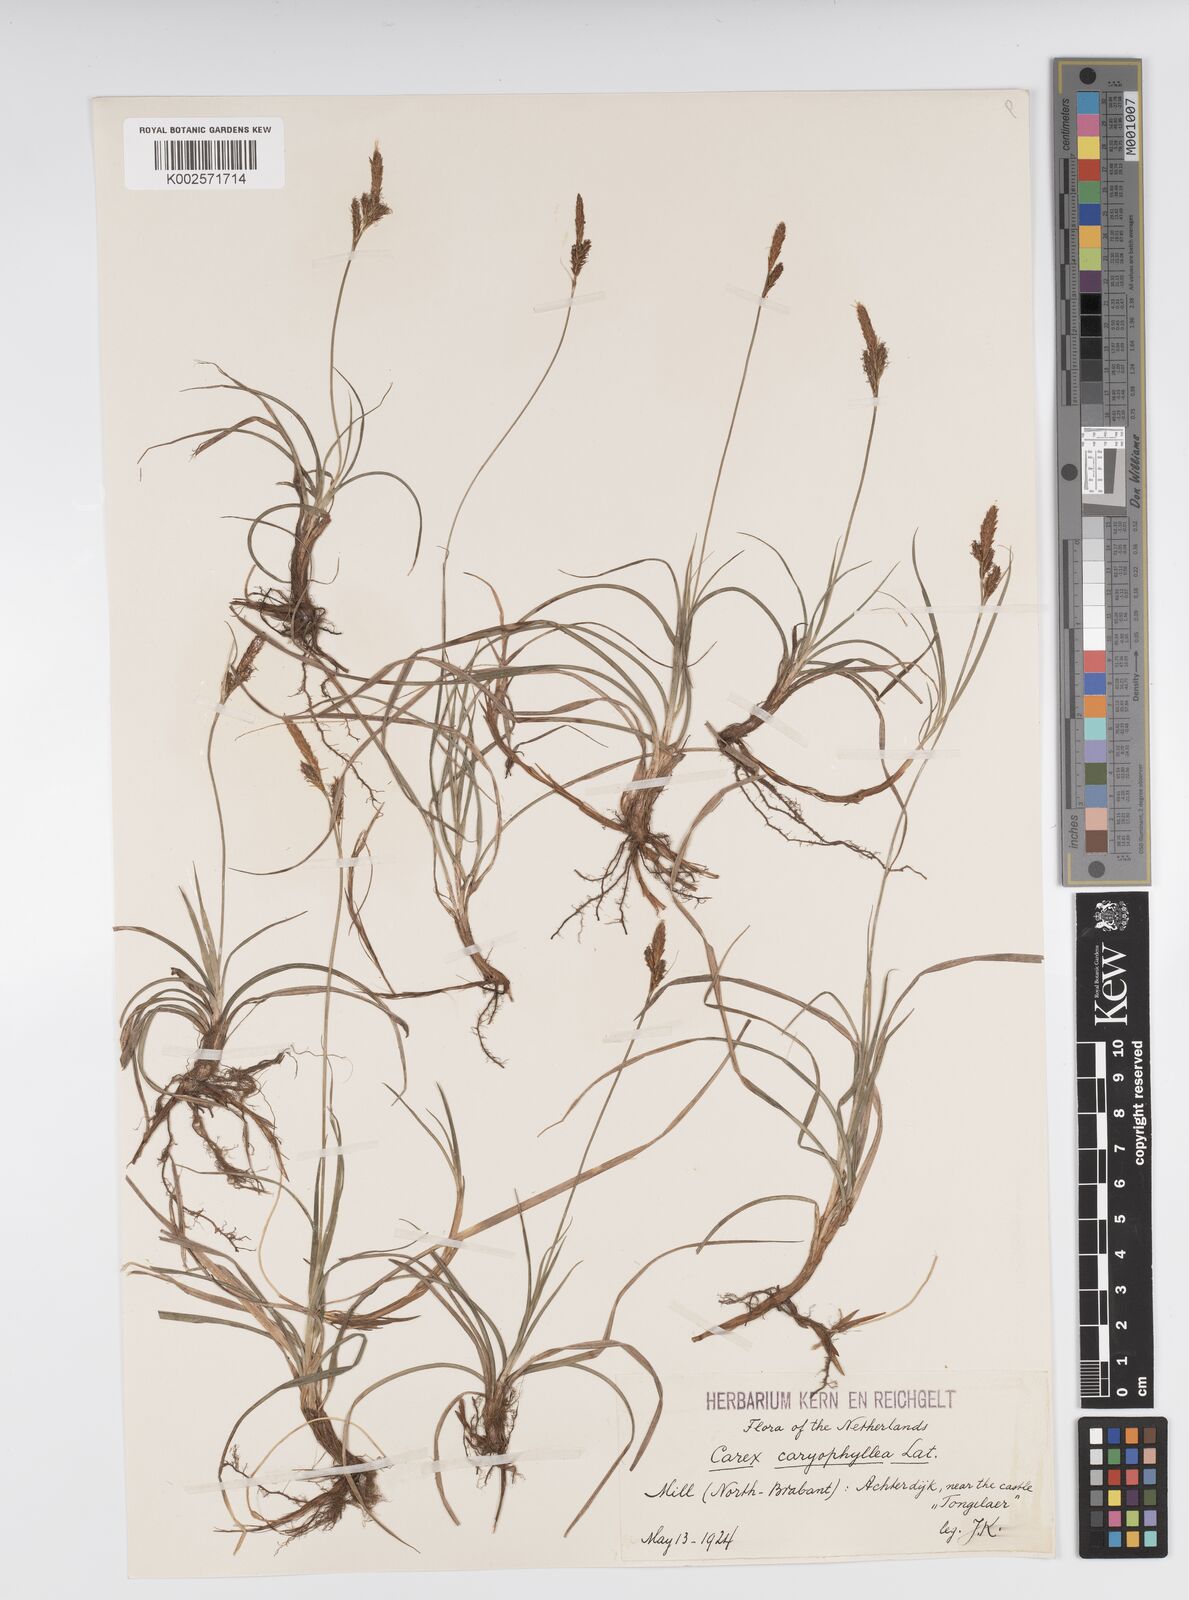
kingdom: Plantae
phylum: Tracheophyta
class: Liliopsida
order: Poales
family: Cyperaceae
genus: Carex
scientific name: Carex caryophyllea
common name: Spring sedge
